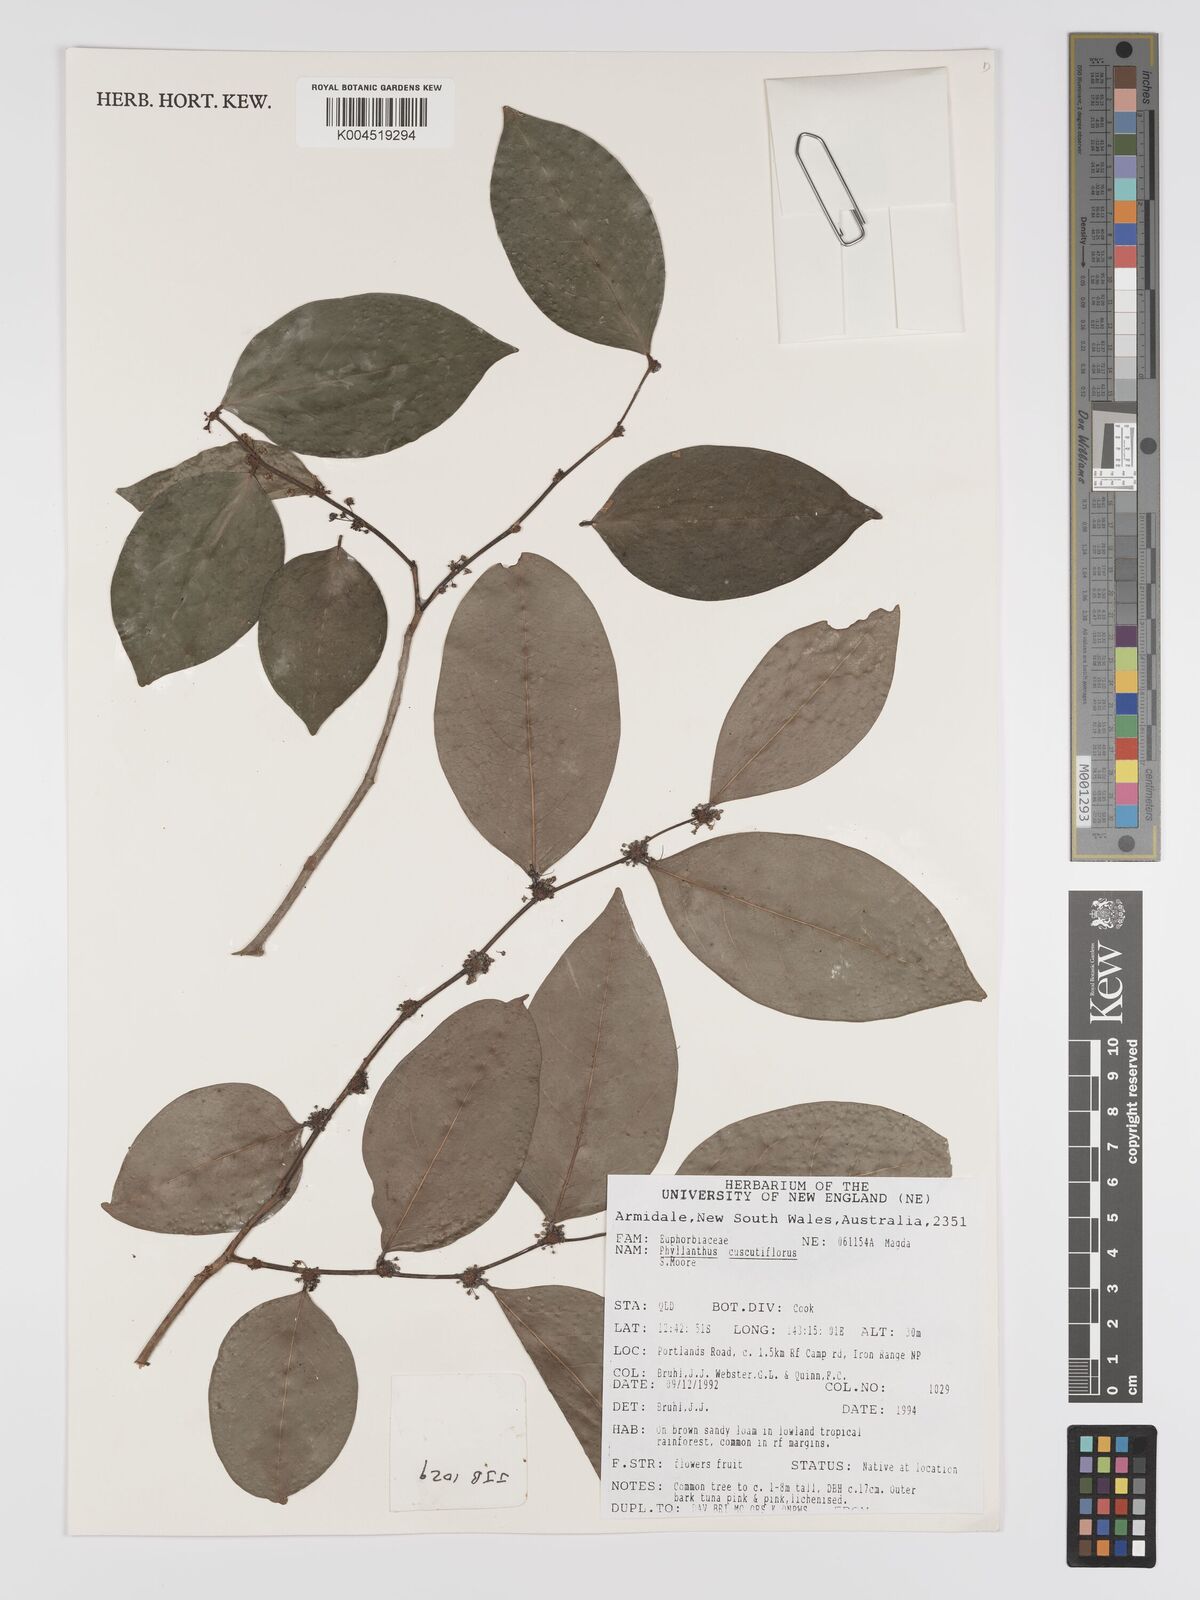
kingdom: Plantae
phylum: Tracheophyta
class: Magnoliopsida
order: Malpighiales
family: Phyllanthaceae
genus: Phyllanthus
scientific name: Phyllanthus cuscutiflorus
